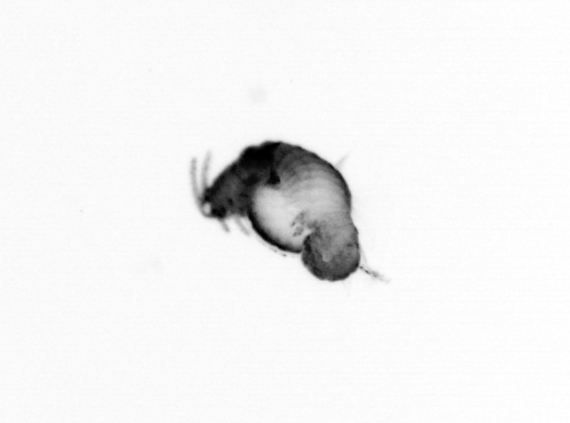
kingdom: Animalia
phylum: Annelida
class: Polychaeta
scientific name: Polychaeta
